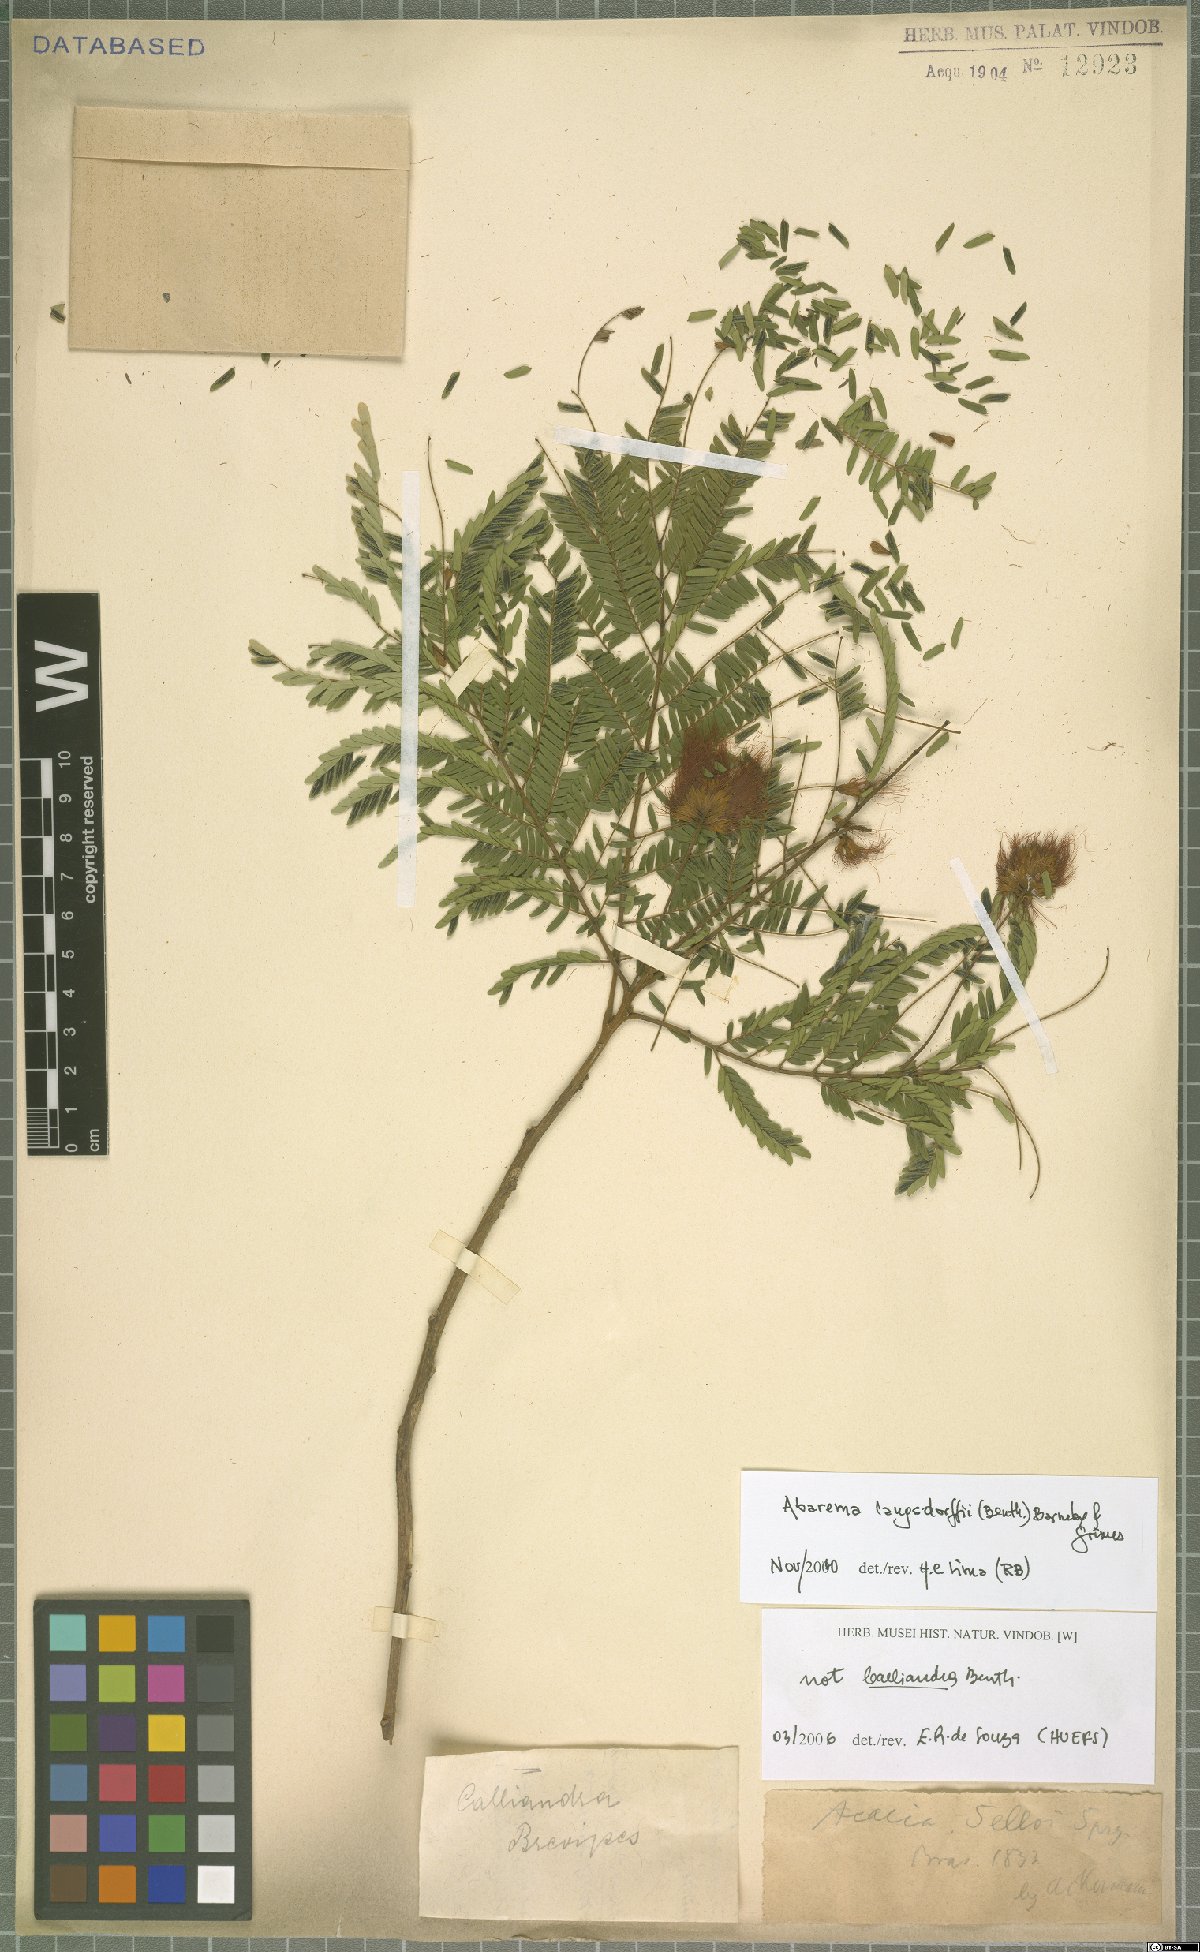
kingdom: Plantae
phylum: Tracheophyta
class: Magnoliopsida
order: Fabales
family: Fabaceae
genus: Jupunba
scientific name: Jupunba langsdorffii
